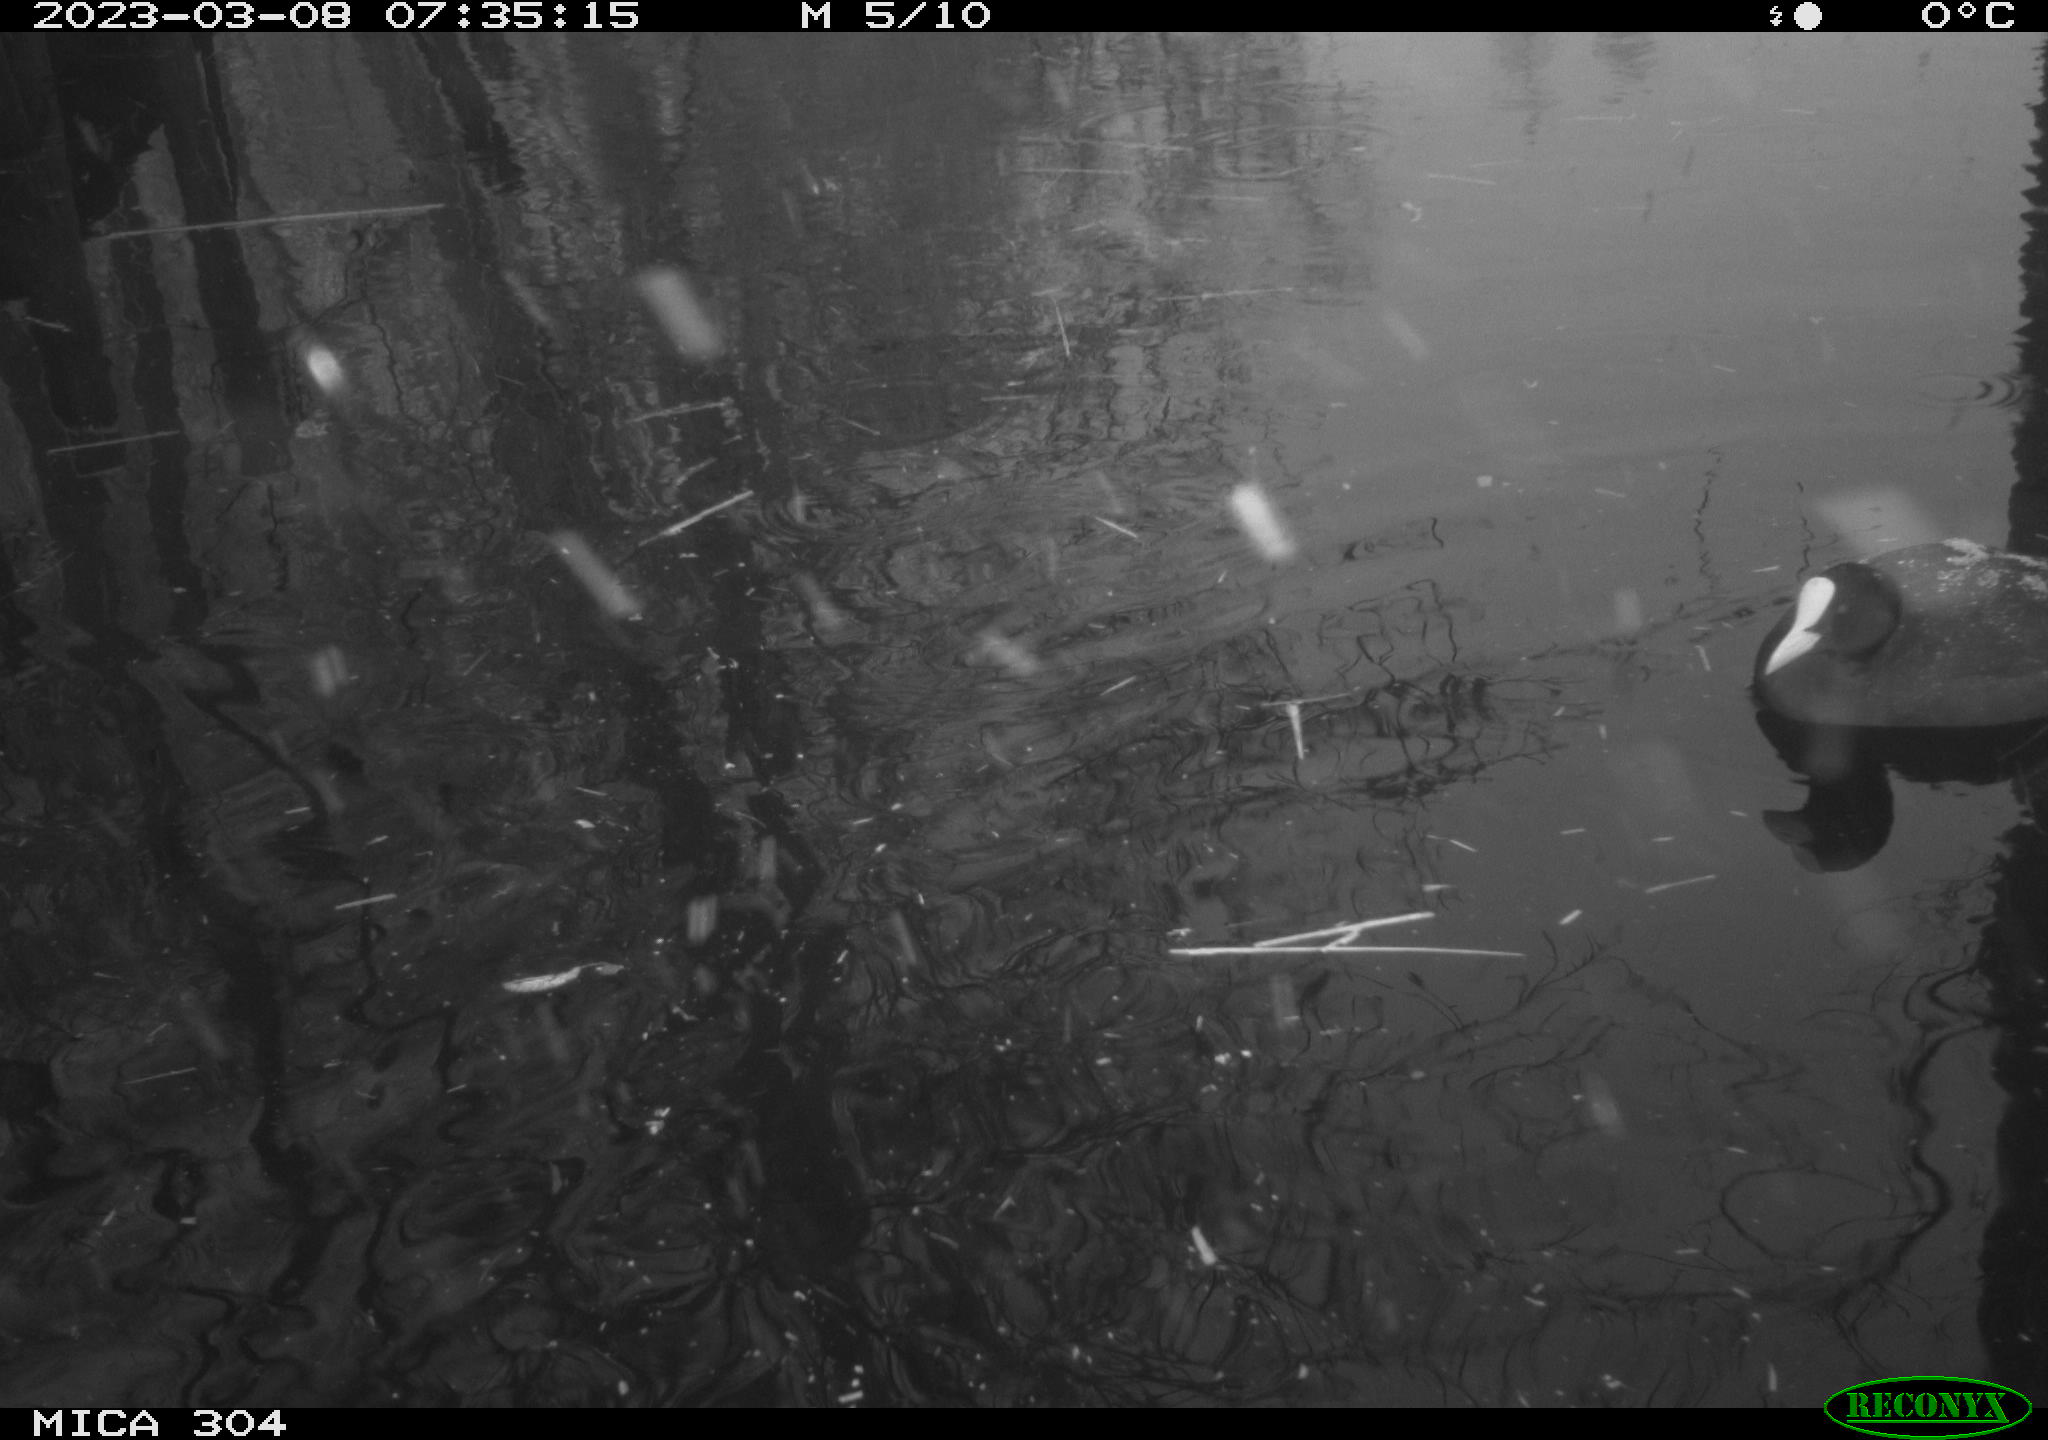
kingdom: Animalia
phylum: Chordata
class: Aves
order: Gruiformes
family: Rallidae
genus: Fulica
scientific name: Fulica atra
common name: Eurasian coot
